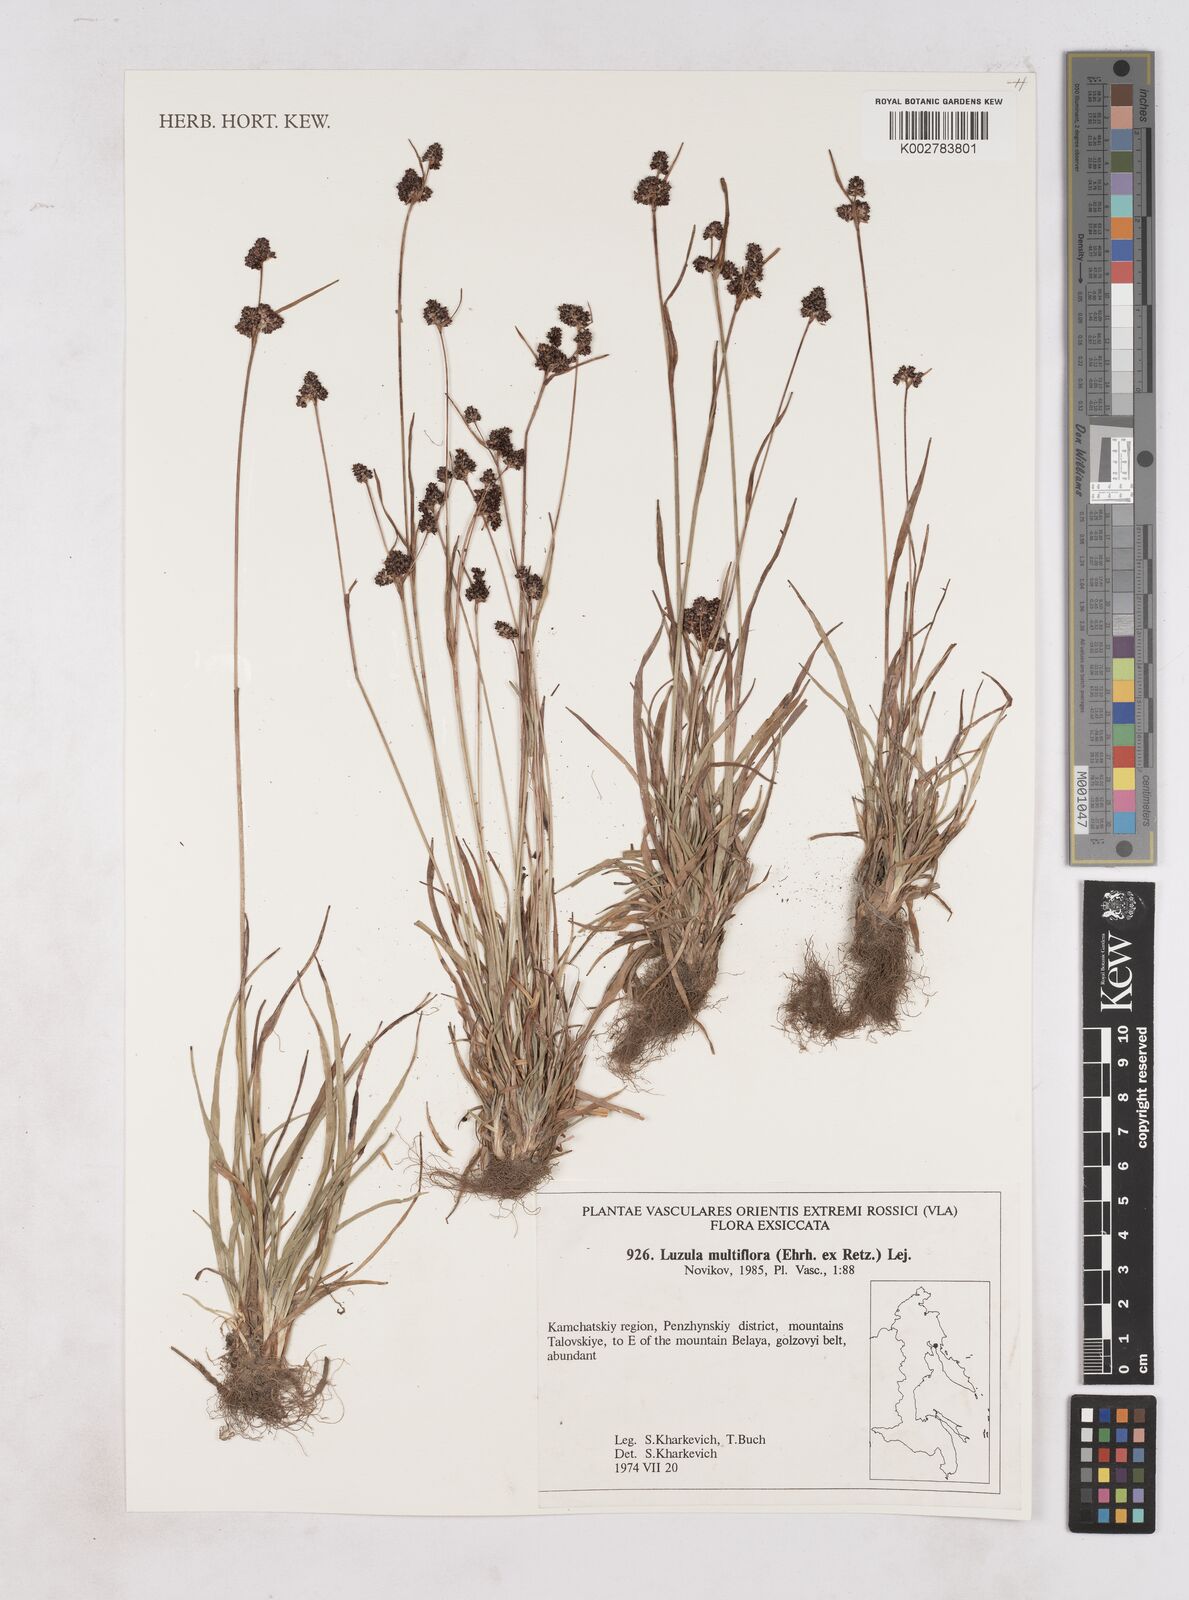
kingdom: Plantae
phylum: Tracheophyta
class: Liliopsida
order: Poales
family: Juncaceae
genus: Luzula
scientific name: Luzula campestris
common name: Field wood-rush
